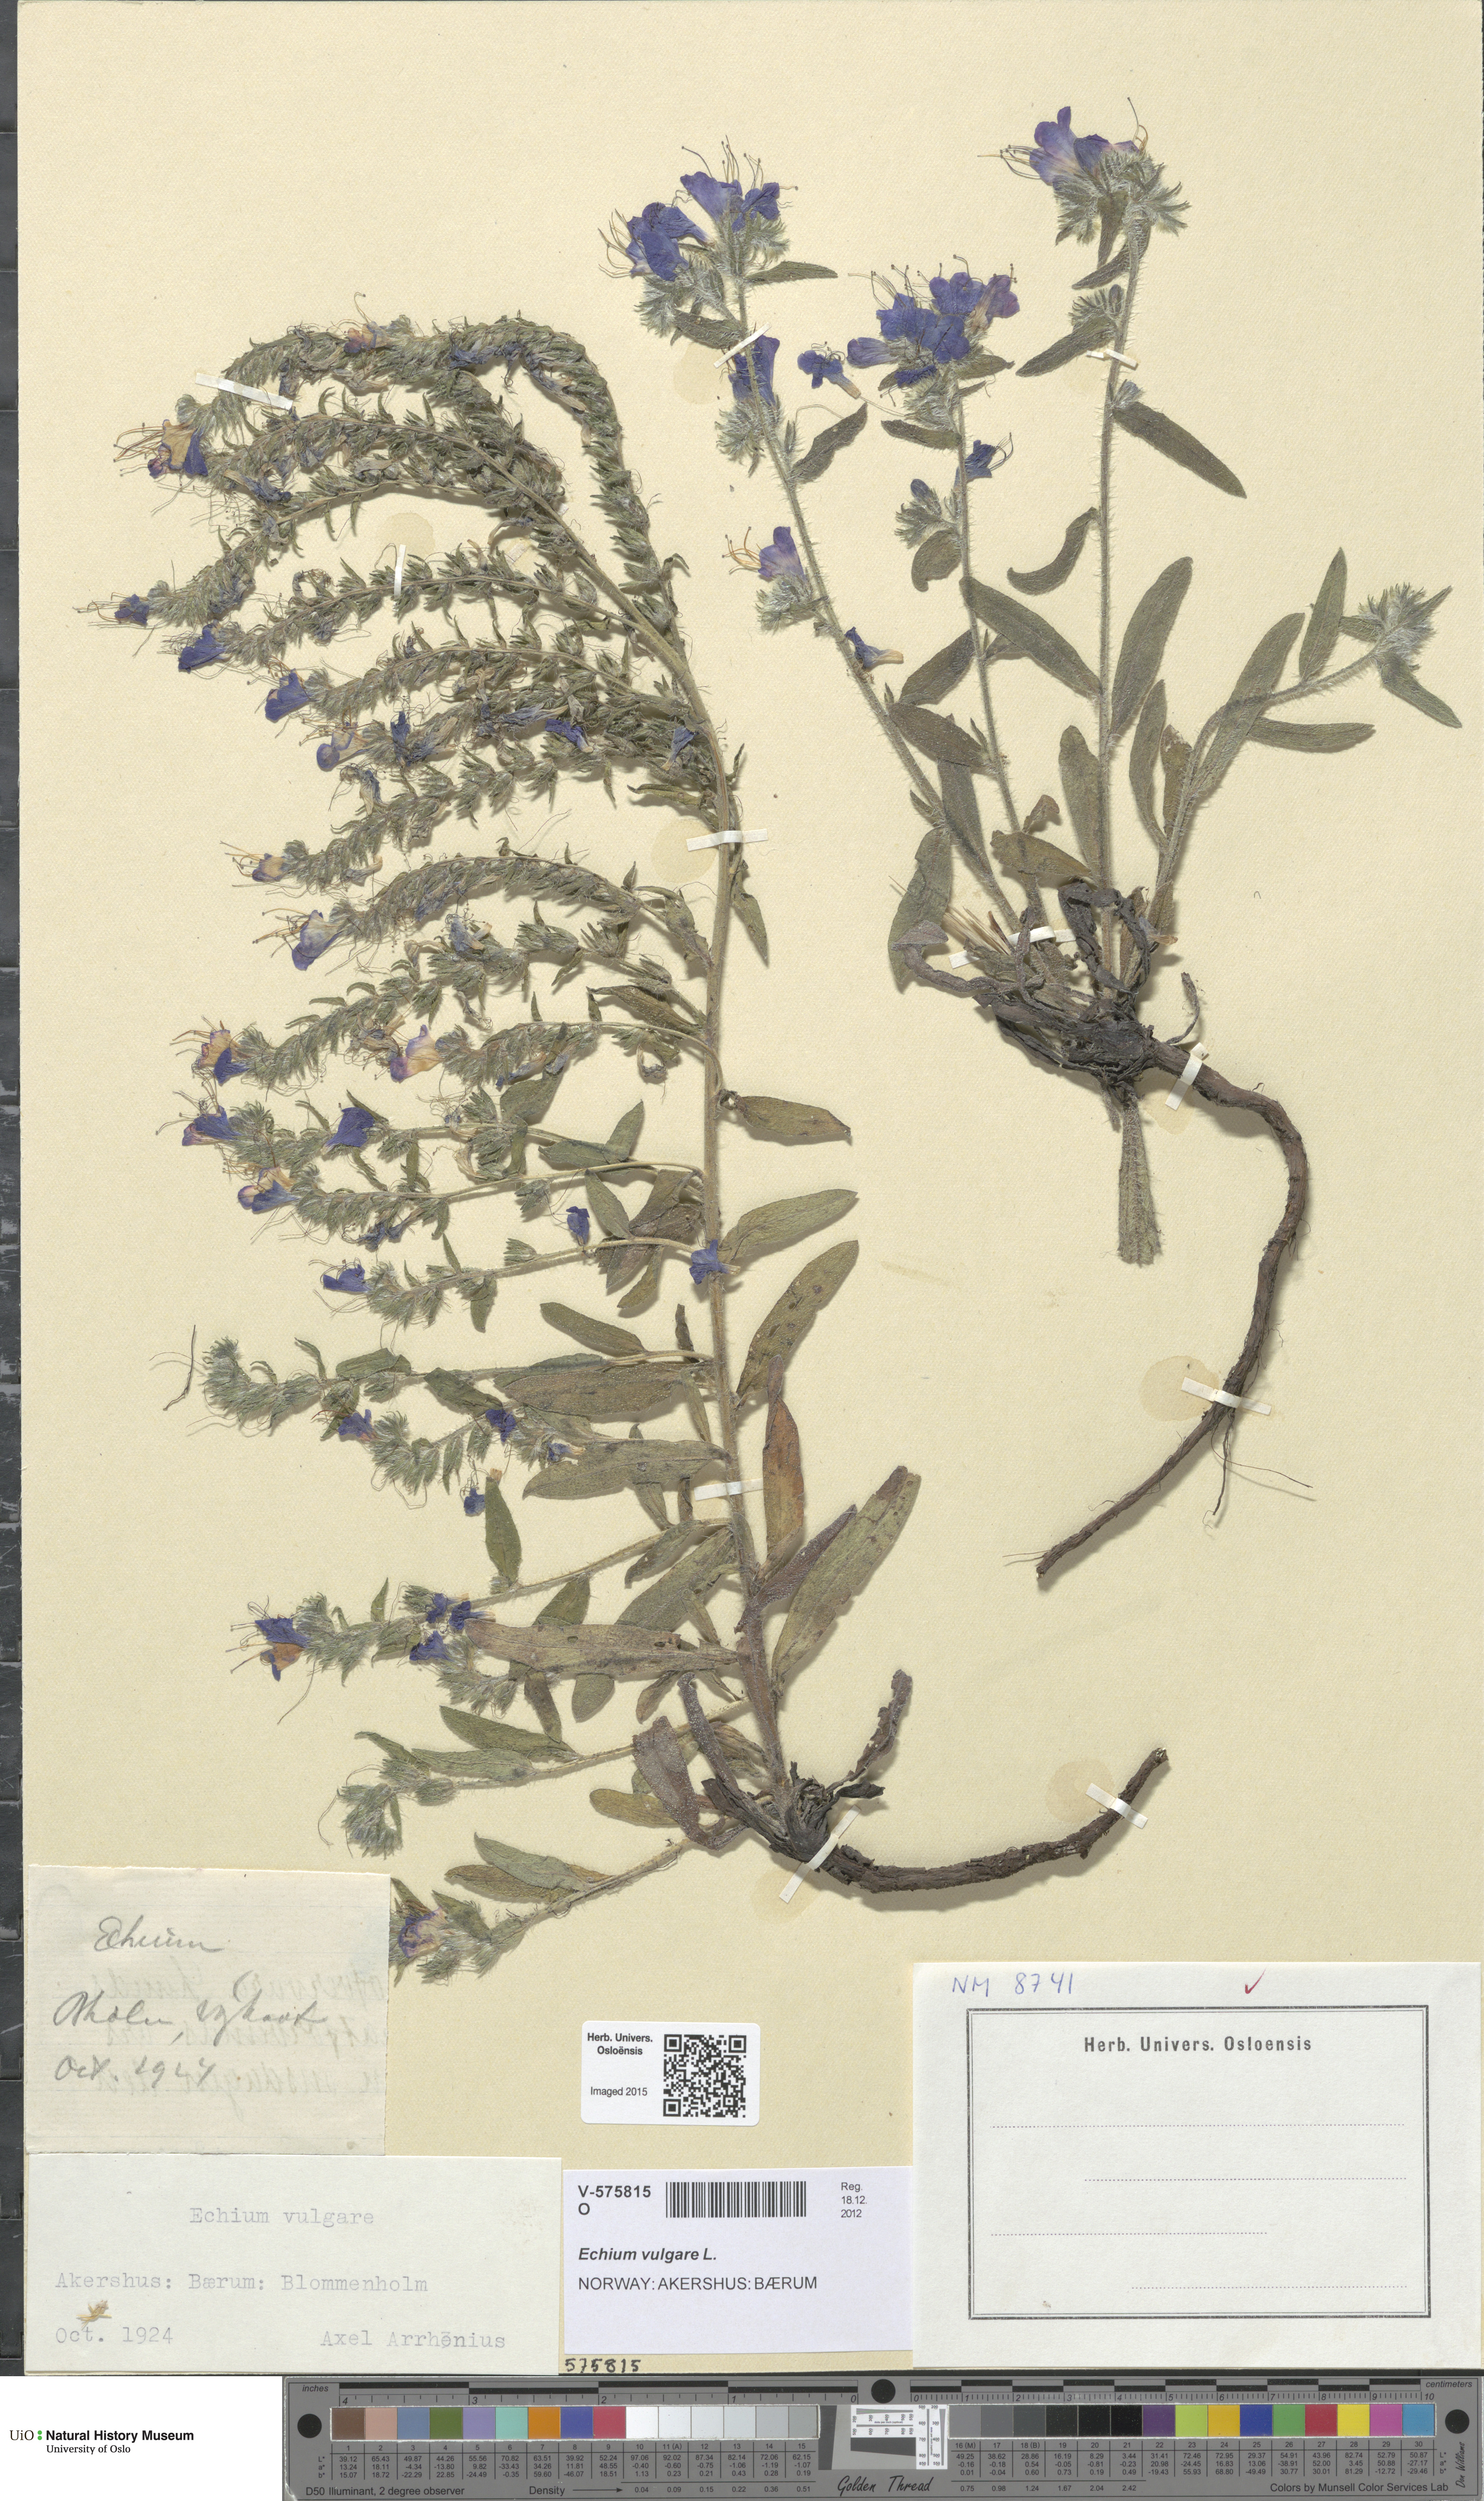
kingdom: Plantae
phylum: Tracheophyta
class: Magnoliopsida
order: Boraginales
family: Boraginaceae
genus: Echium
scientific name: Echium vulgare
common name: Common viper's bugloss
